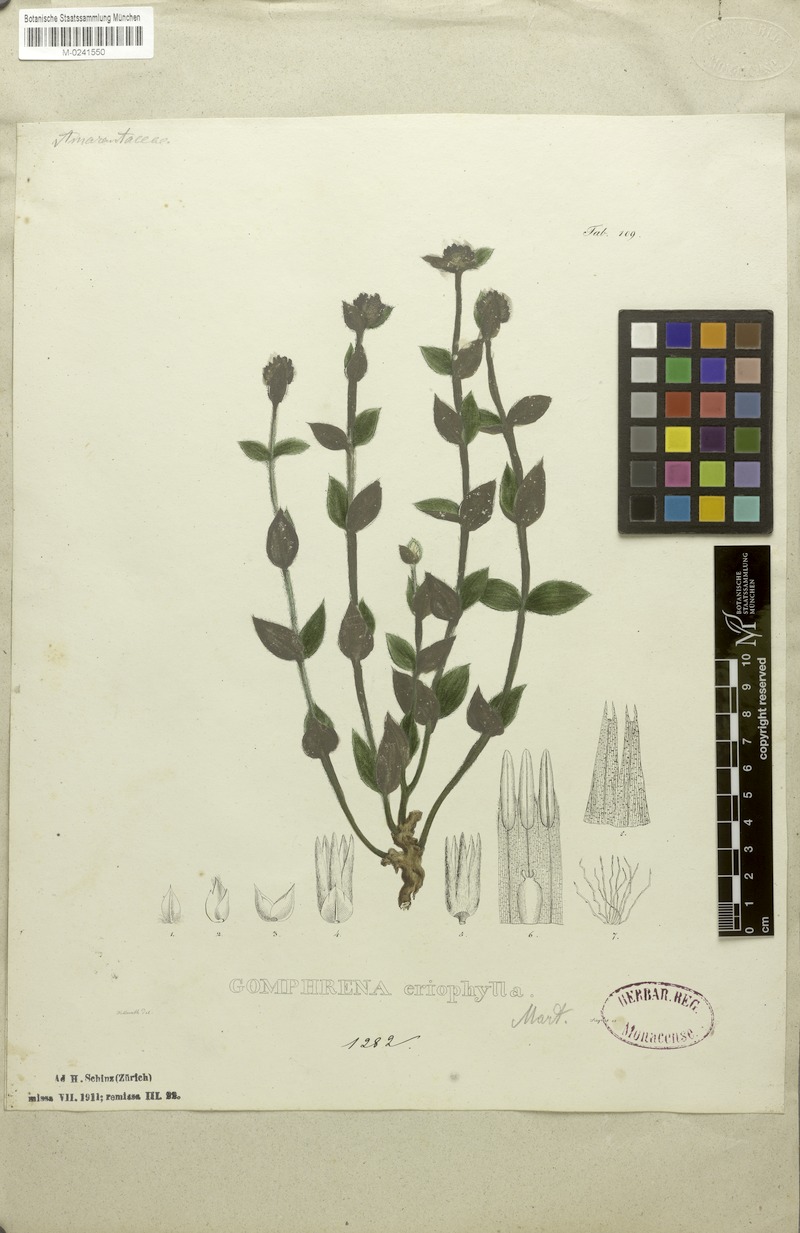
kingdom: Plantae
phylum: Tracheophyta
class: Magnoliopsida
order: Caryophyllales
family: Amaranthaceae
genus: Gomphrena
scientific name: Gomphrena eriophylla
